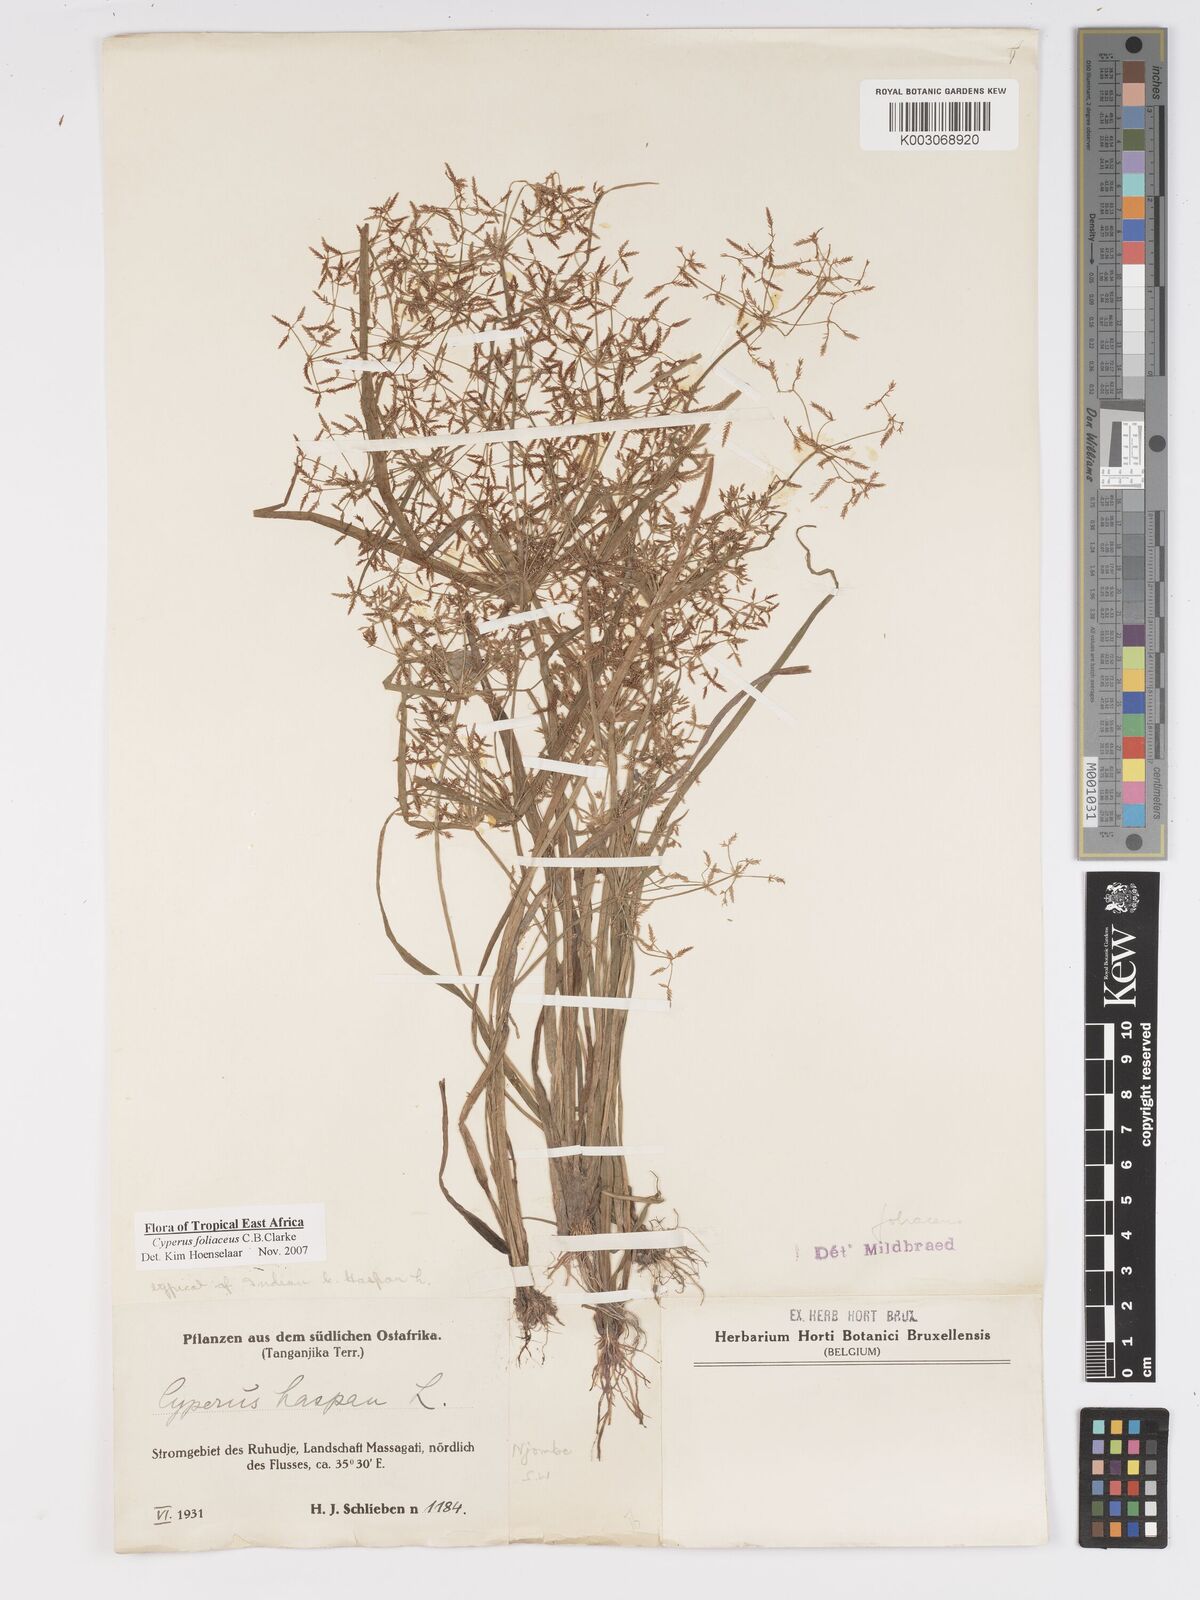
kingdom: Plantae
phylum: Tracheophyta
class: Liliopsida
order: Poales
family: Cyperaceae
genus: Cyperus
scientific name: Cyperus foliaceus
